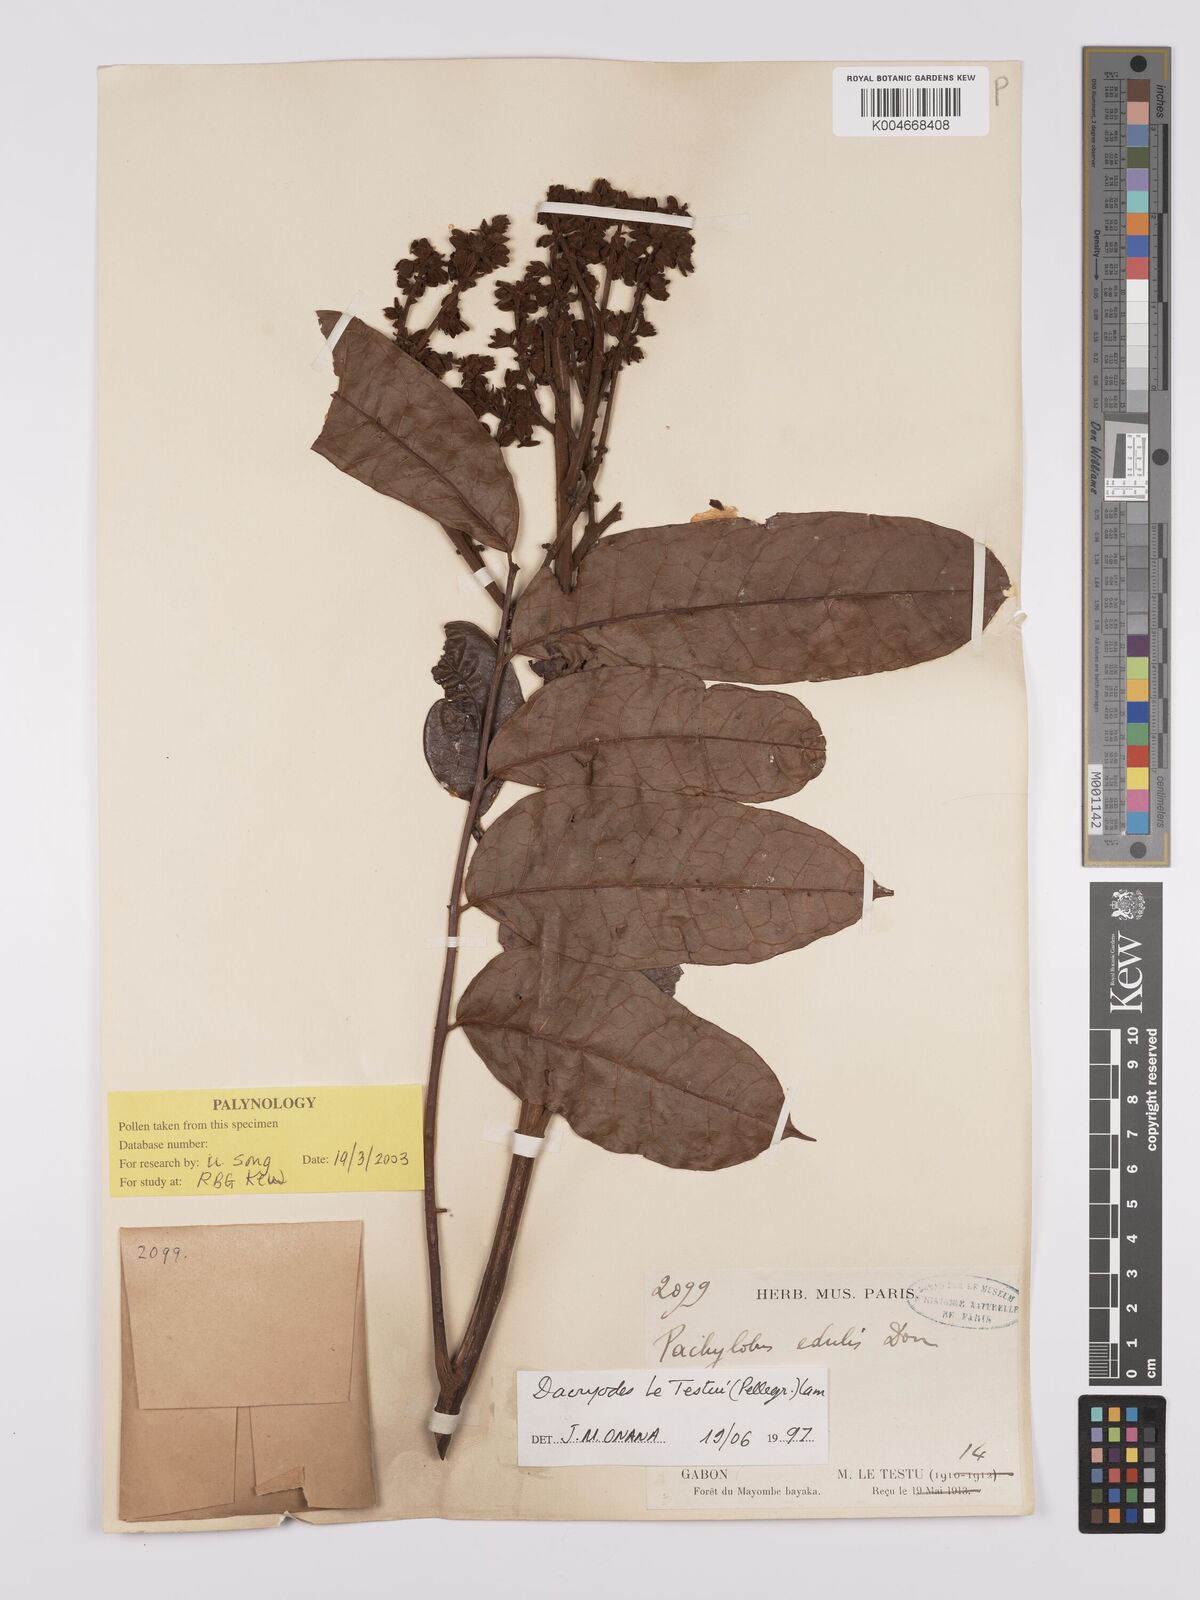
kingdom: Plantae
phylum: Tracheophyta
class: Magnoliopsida
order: Sapindales
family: Burseraceae
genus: Pachylobus
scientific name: Pachylobus letestui
